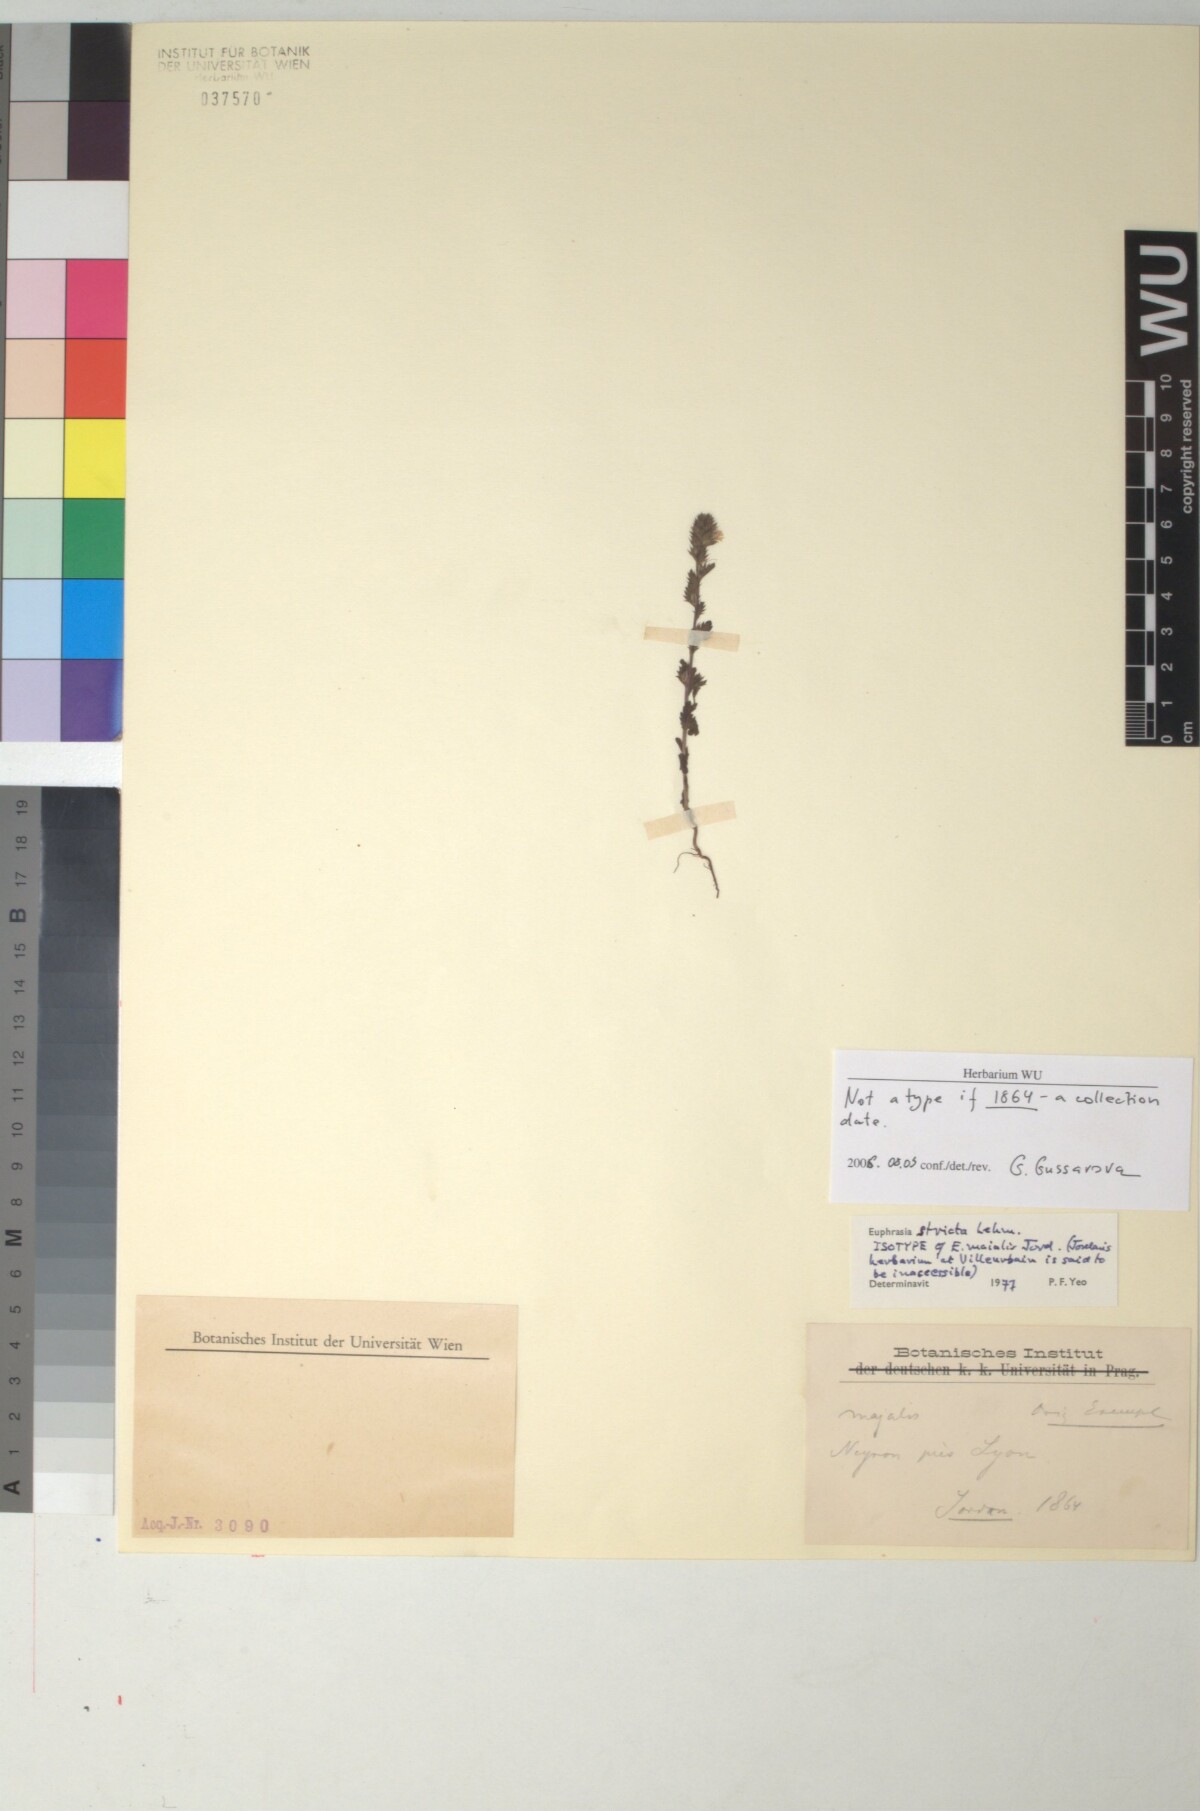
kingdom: Plantae
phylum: Tracheophyta
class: Magnoliopsida
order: Lamiales
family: Orobanchaceae
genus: Euphrasia
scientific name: Euphrasia stricta
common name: Drug eyebright
